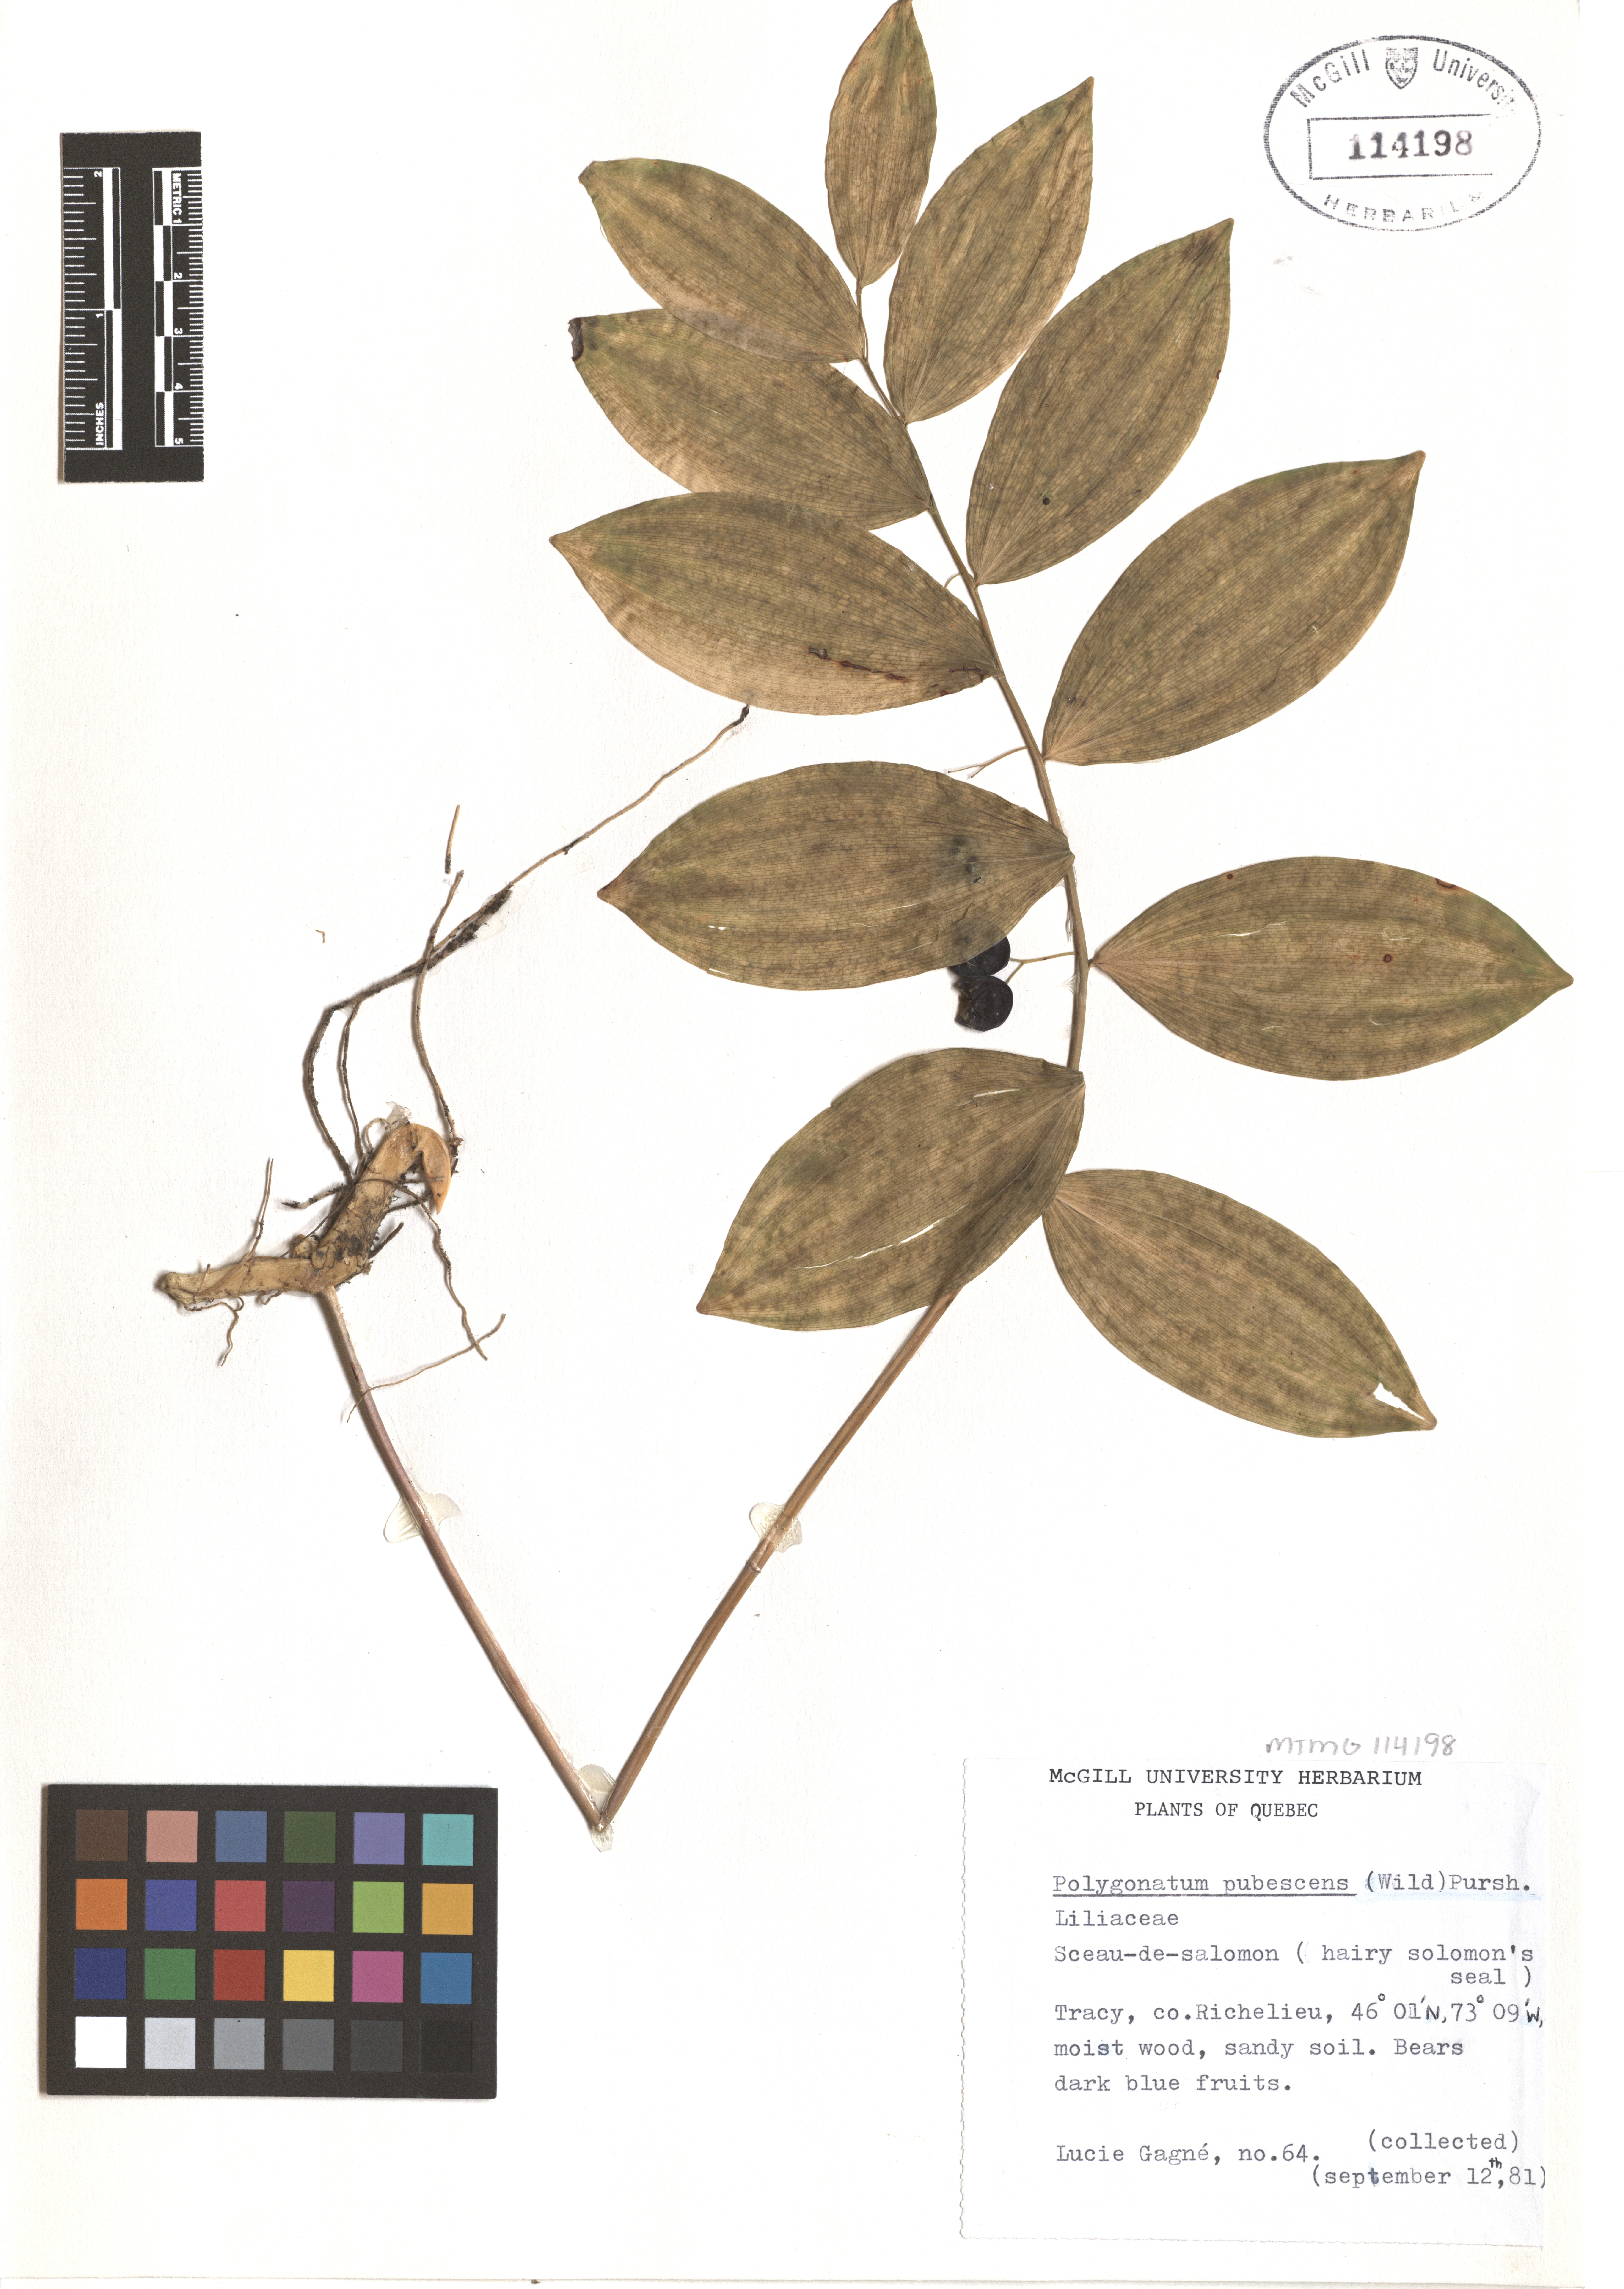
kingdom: Plantae
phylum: Tracheophyta
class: Liliopsida
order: Asparagales
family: Asparagaceae
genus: Polygonatum
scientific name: Polygonatum pubescens
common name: Downy solomon's seal
